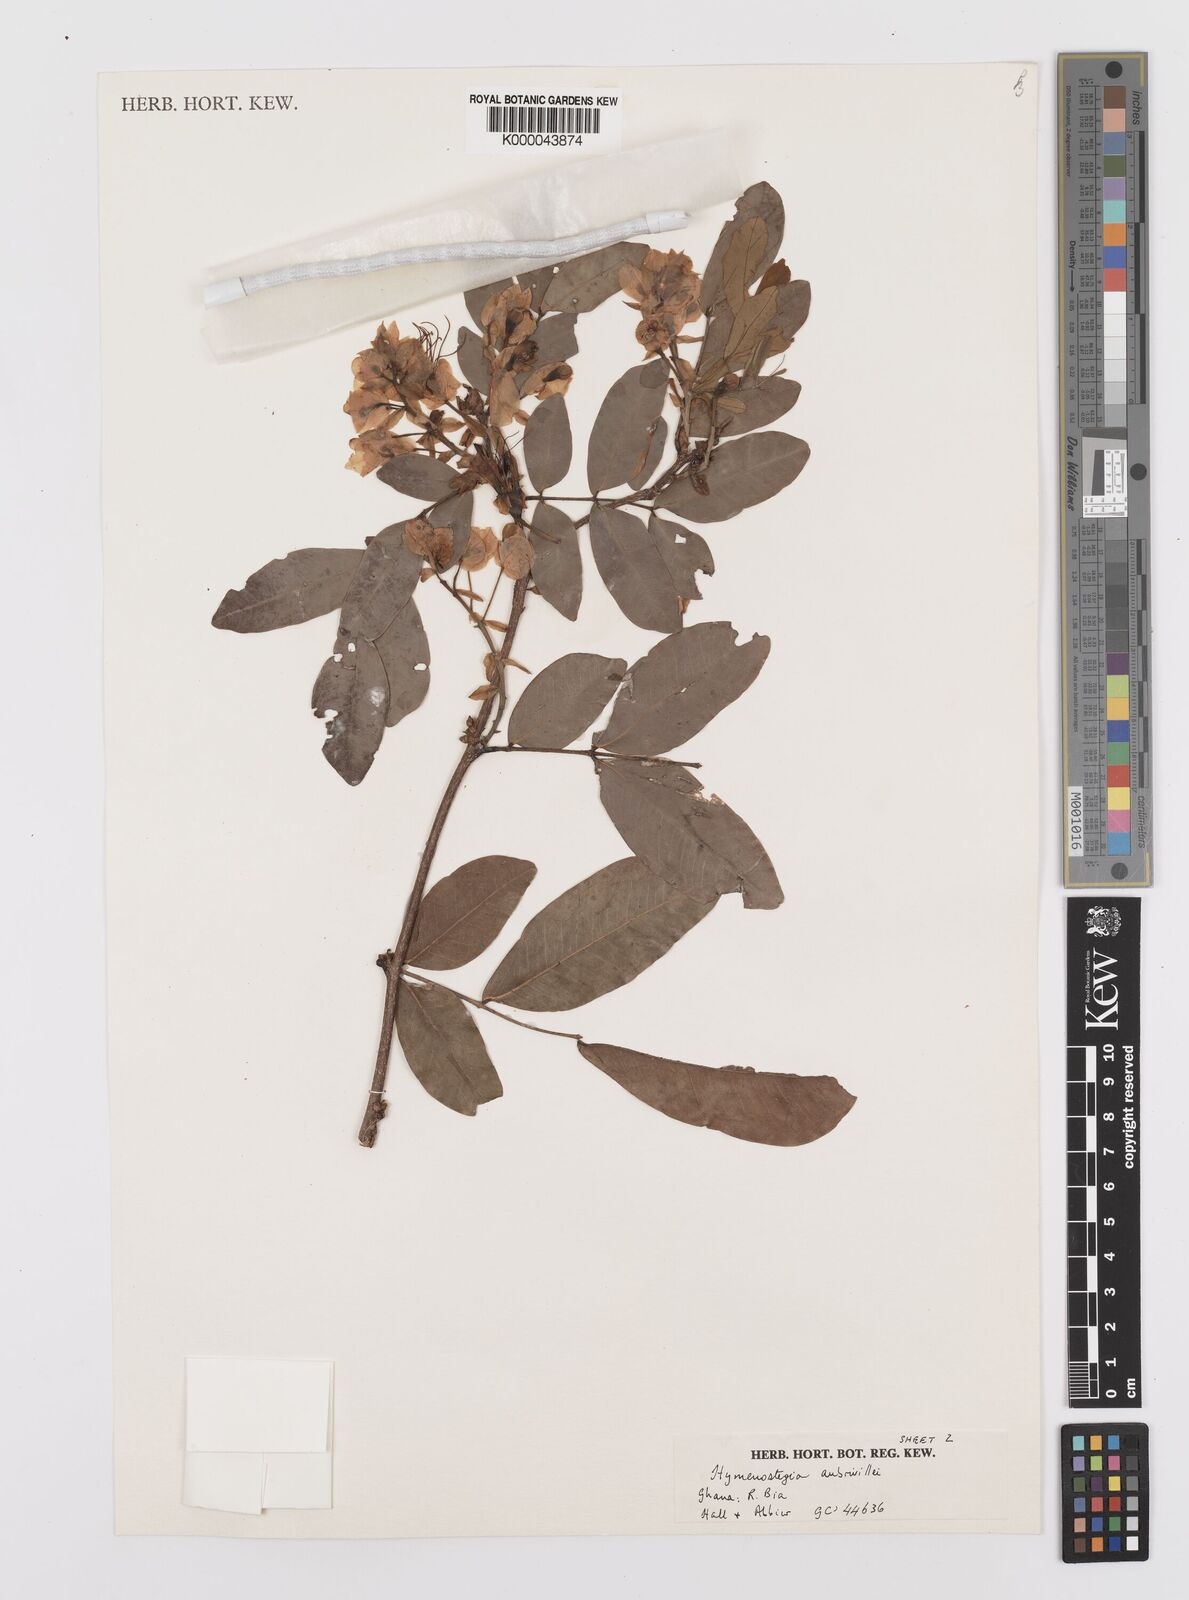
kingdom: Plantae
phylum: Tracheophyta
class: Magnoliopsida
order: Fabales
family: Fabaceae
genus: Hymenostegia
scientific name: Hymenostegia aubrevillei
